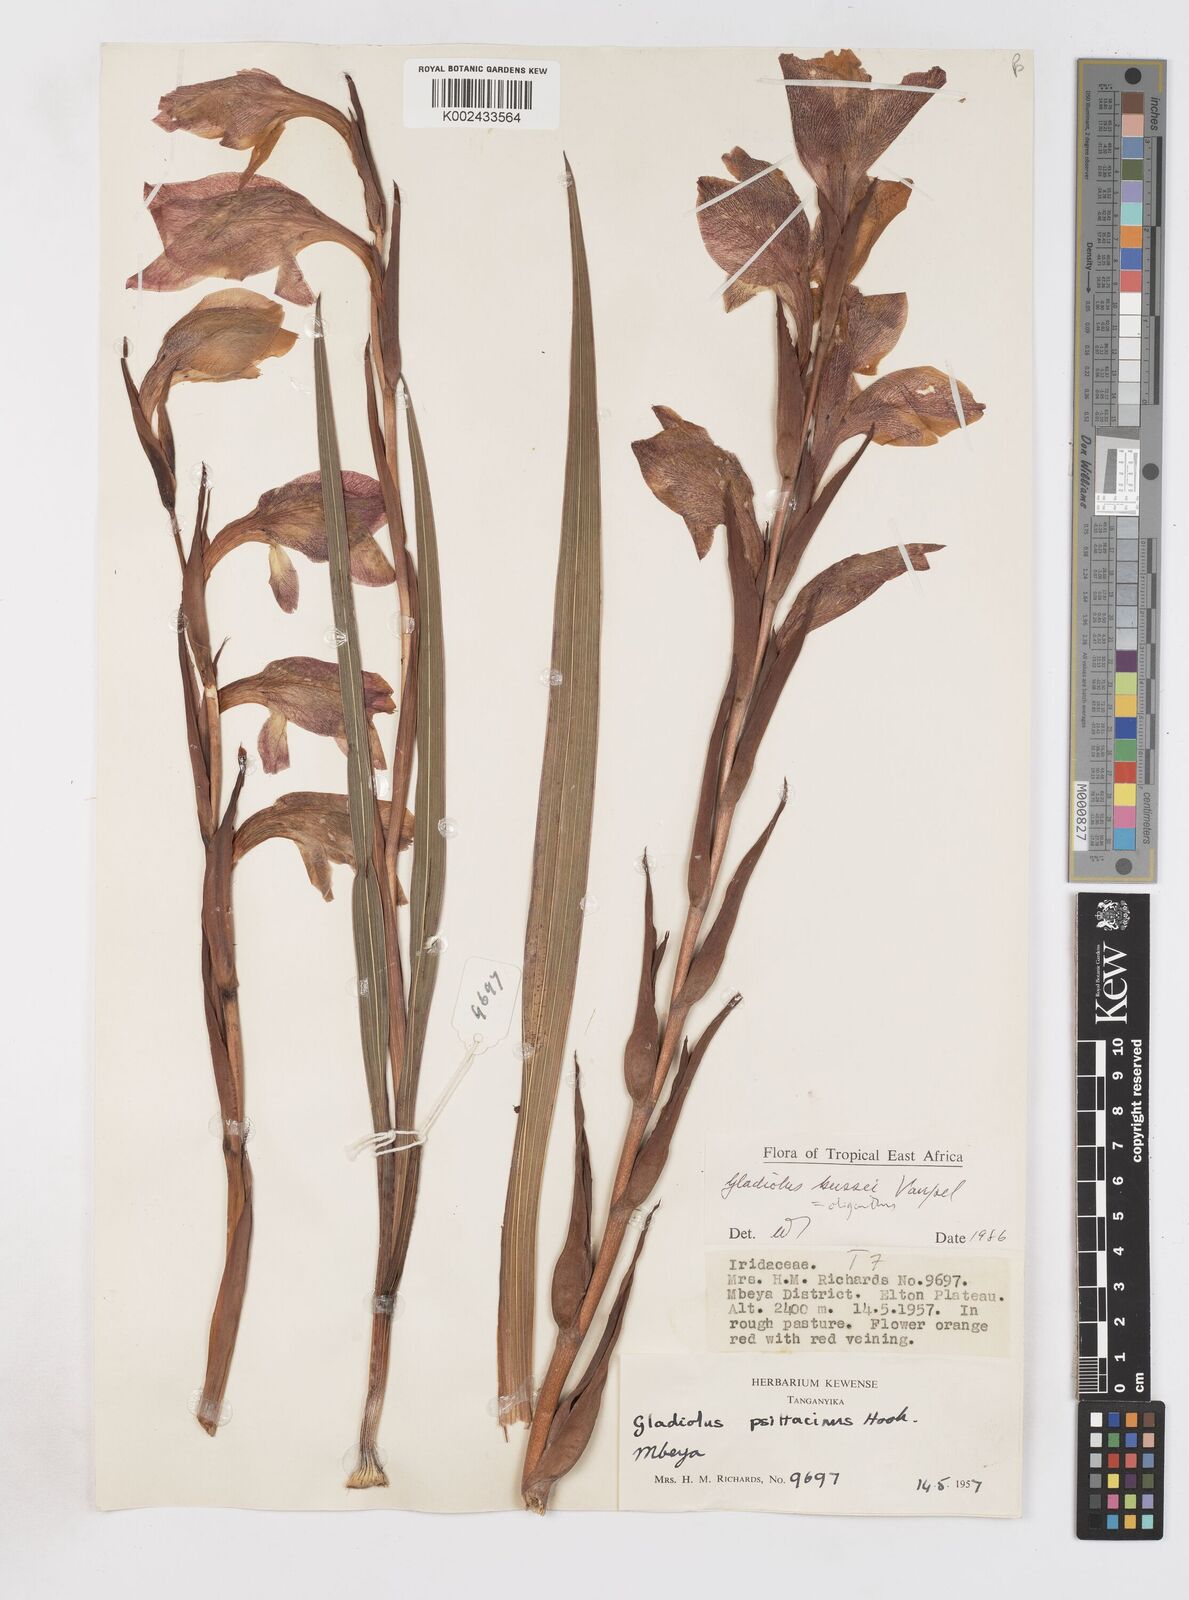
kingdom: Plantae
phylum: Tracheophyta
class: Liliopsida
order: Asparagales
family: Iridaceae
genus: Gladiolus
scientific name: Gladiolus oliganthus
